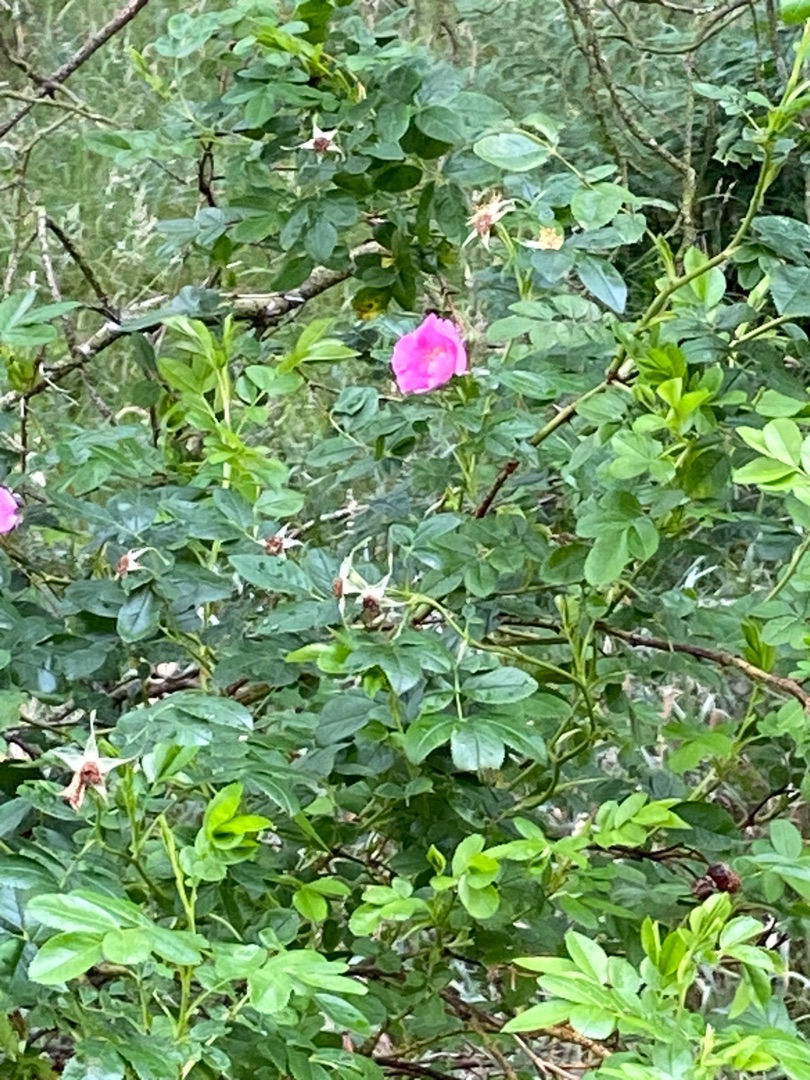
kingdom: Plantae
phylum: Tracheophyta
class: Magnoliopsida
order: Rosales
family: Rosaceae
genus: Rosa
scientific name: Rosa rugosa
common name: Rynket rose
